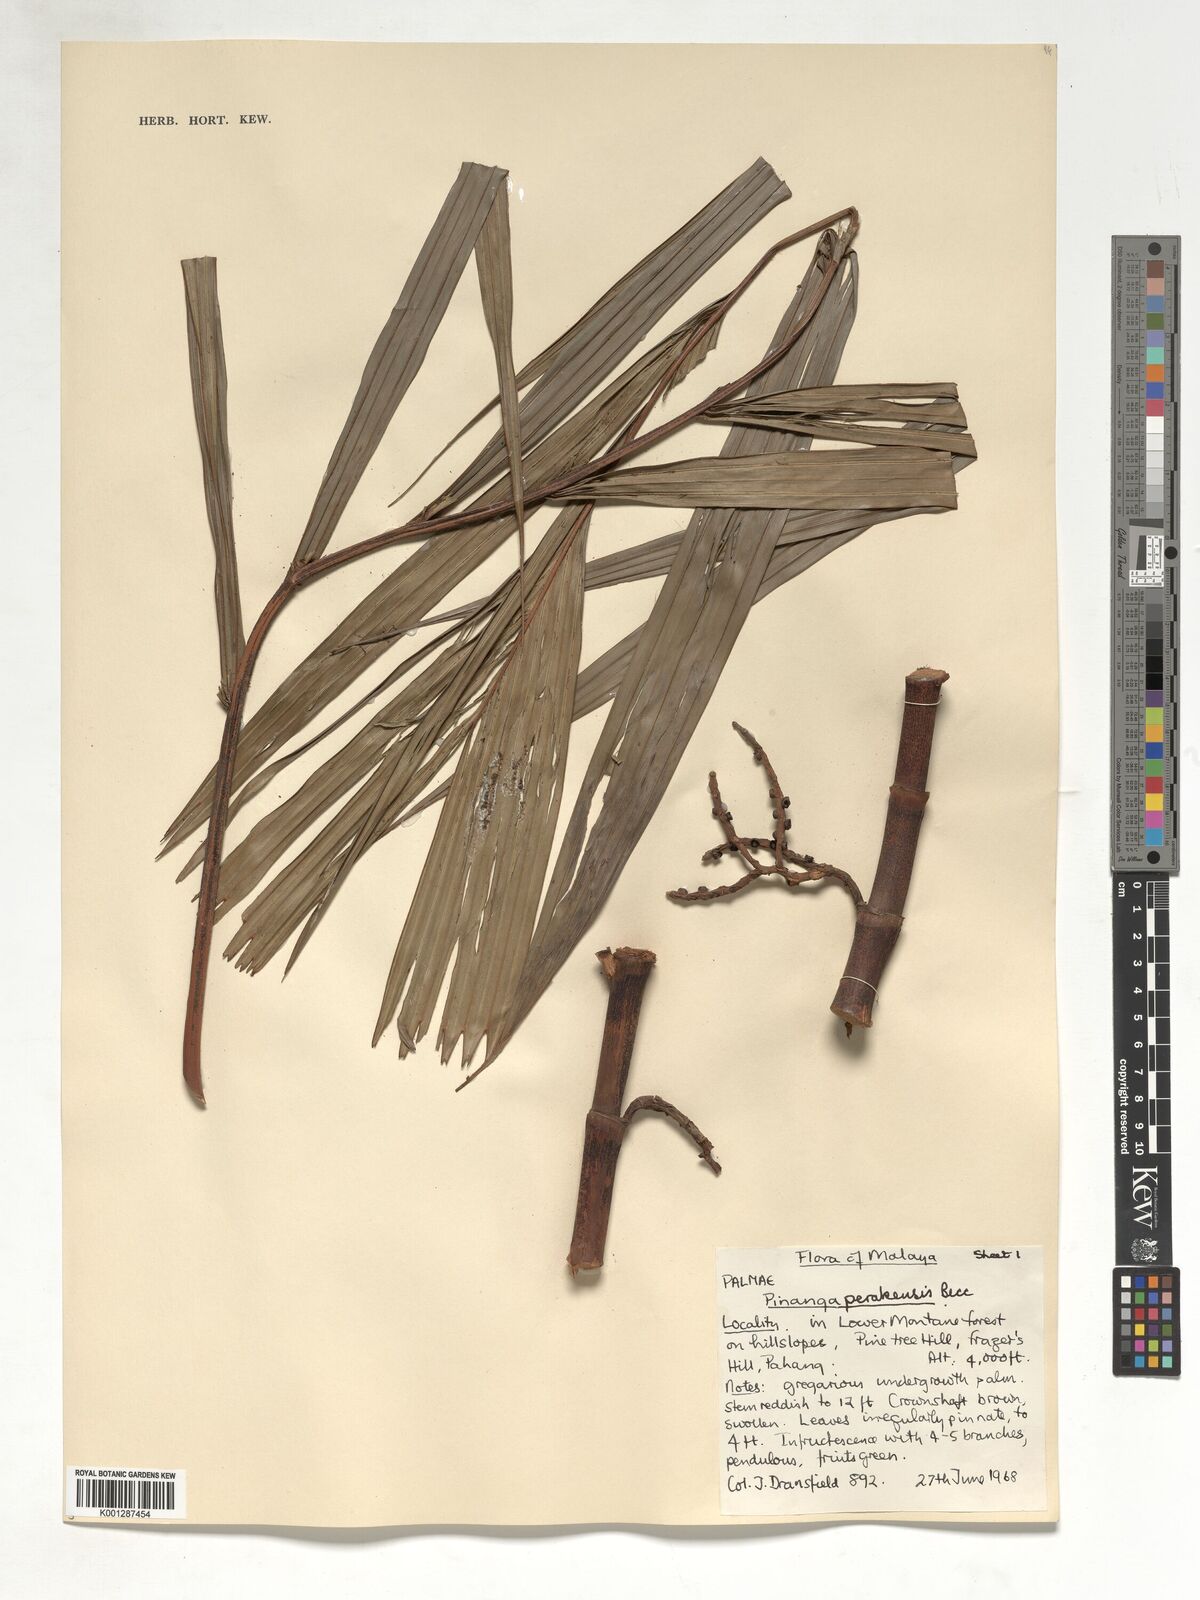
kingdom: Plantae
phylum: Tracheophyta
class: Liliopsida
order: Arecales
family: Arecaceae
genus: Pinanga
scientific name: Pinanga perakensis
